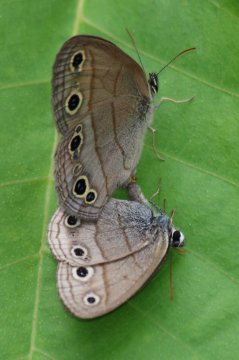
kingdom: Animalia
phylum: Arthropoda
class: Insecta
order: Lepidoptera
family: Nymphalidae
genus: Euptychia
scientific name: Euptychia cymela
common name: Little Wood Satyr
